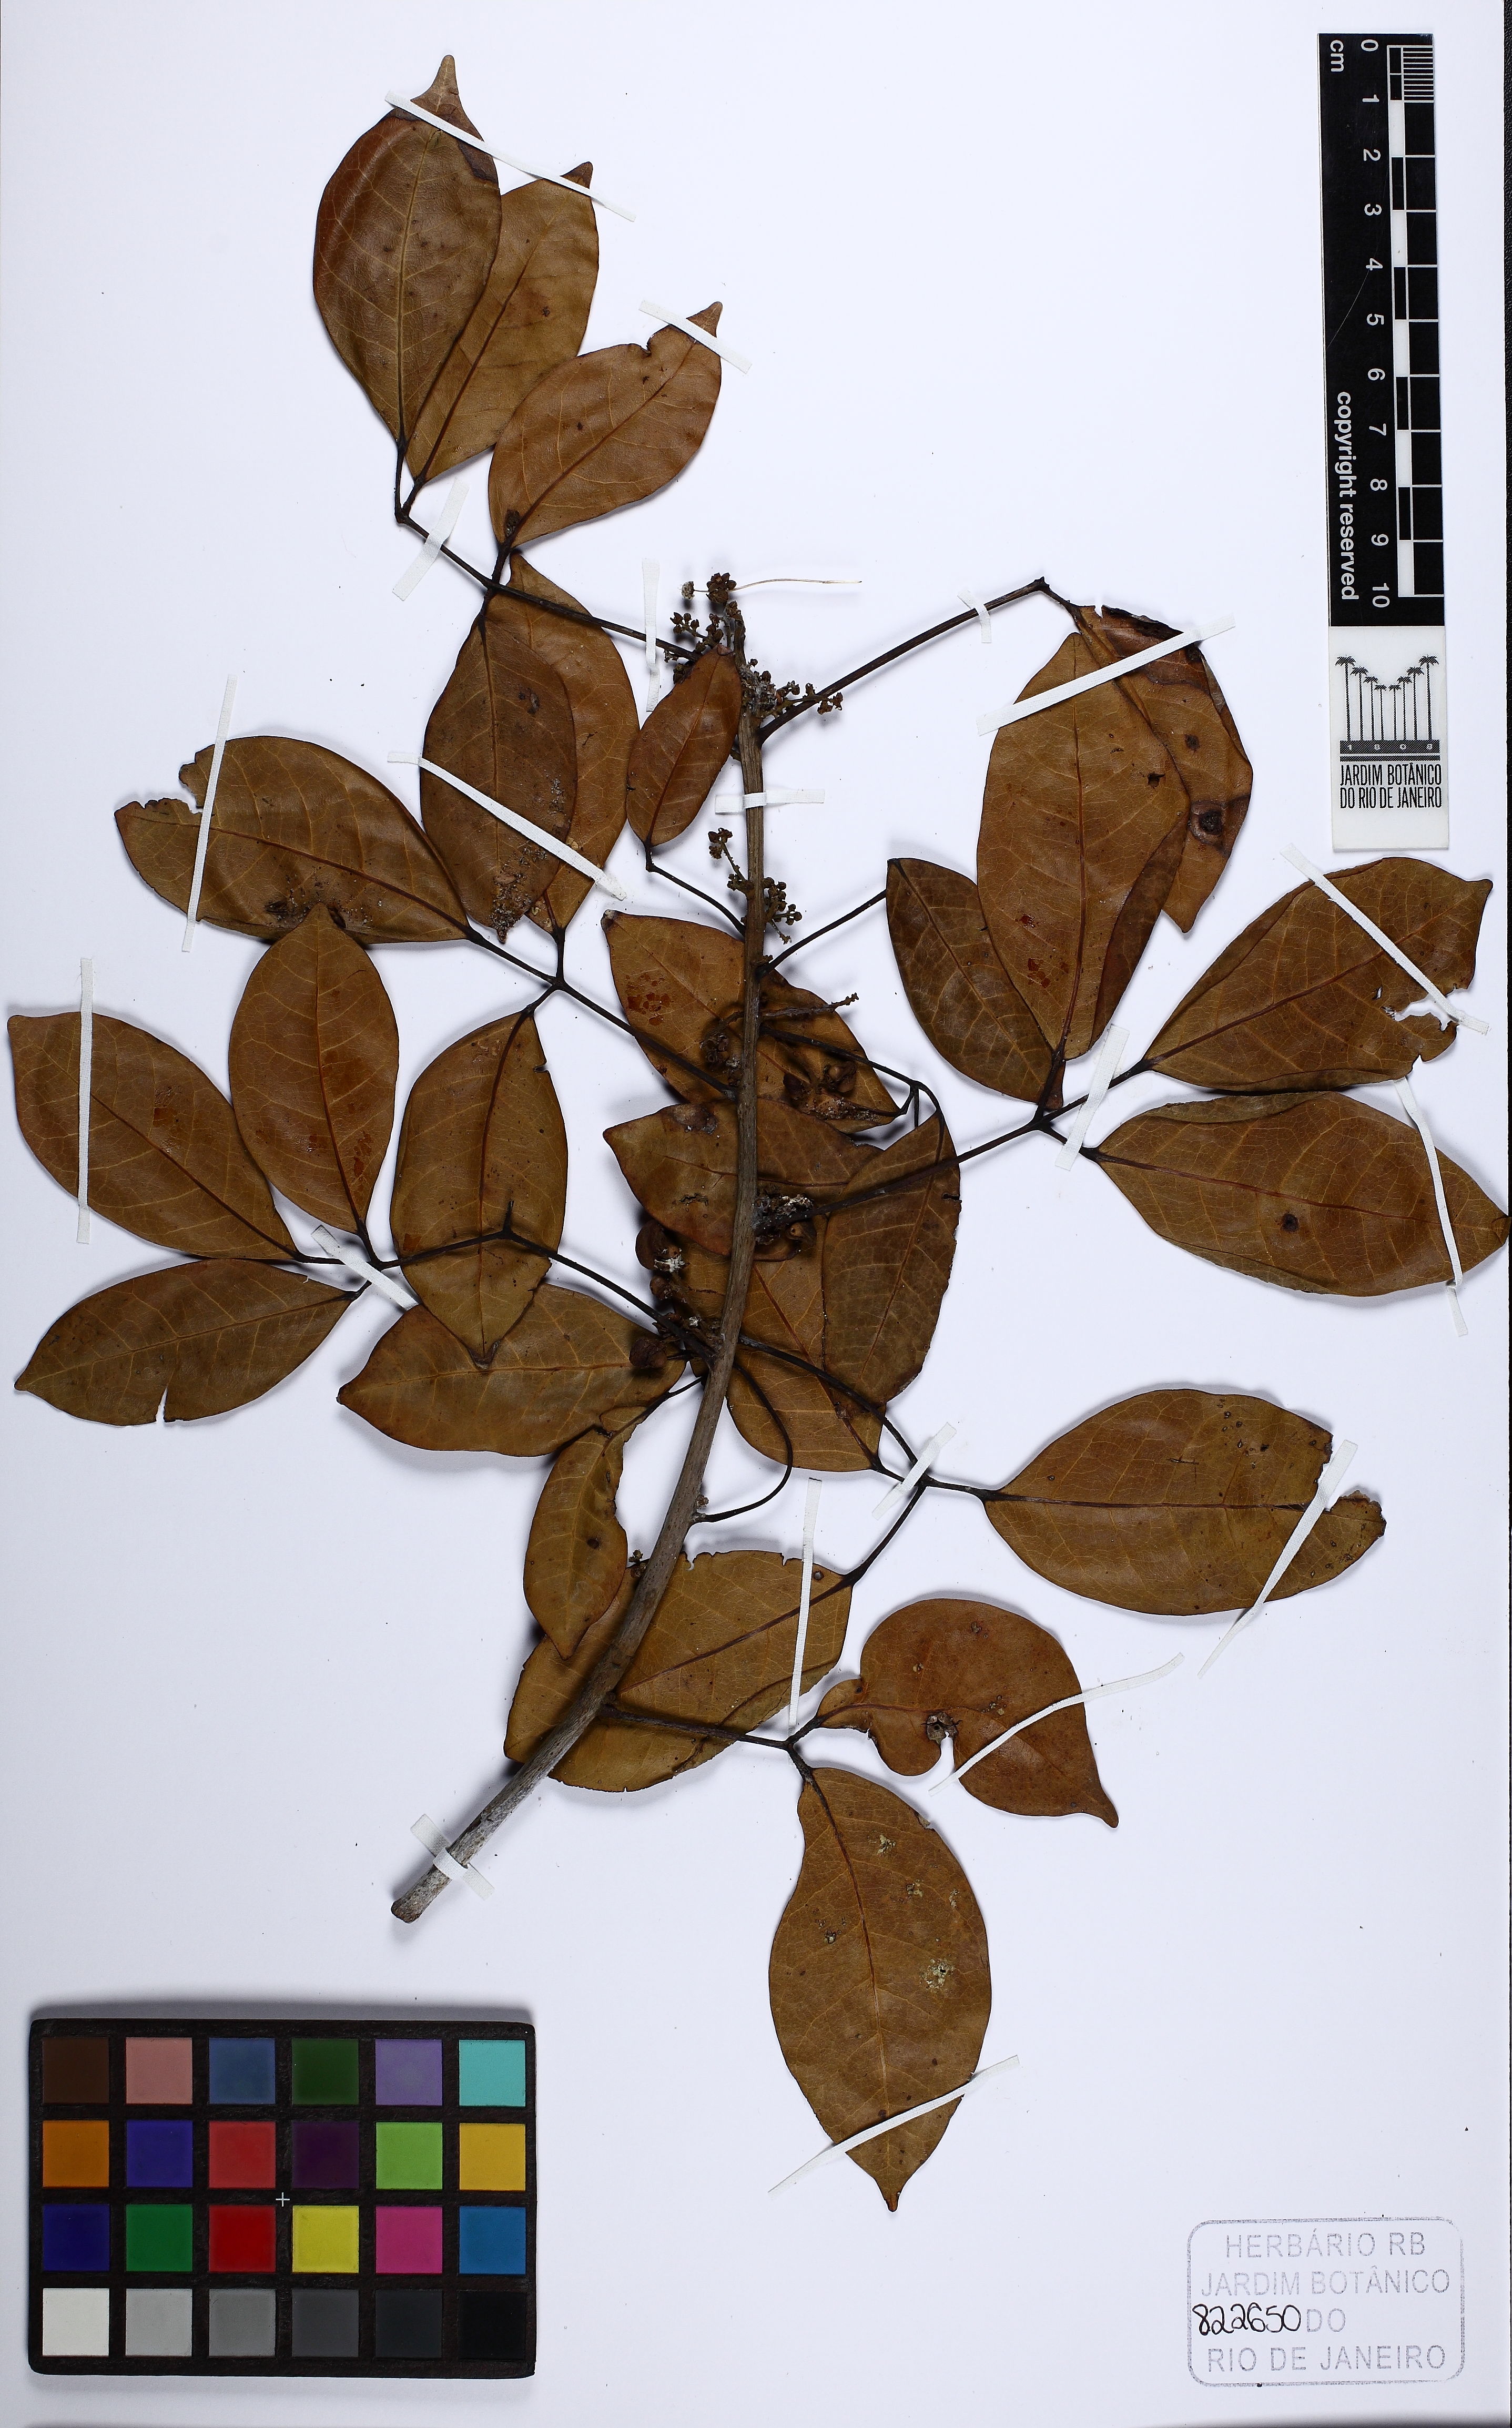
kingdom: Plantae
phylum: Tracheophyta
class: Magnoliopsida
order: Sapindales
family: Burseraceae
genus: Protium
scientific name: Protium icicariba
